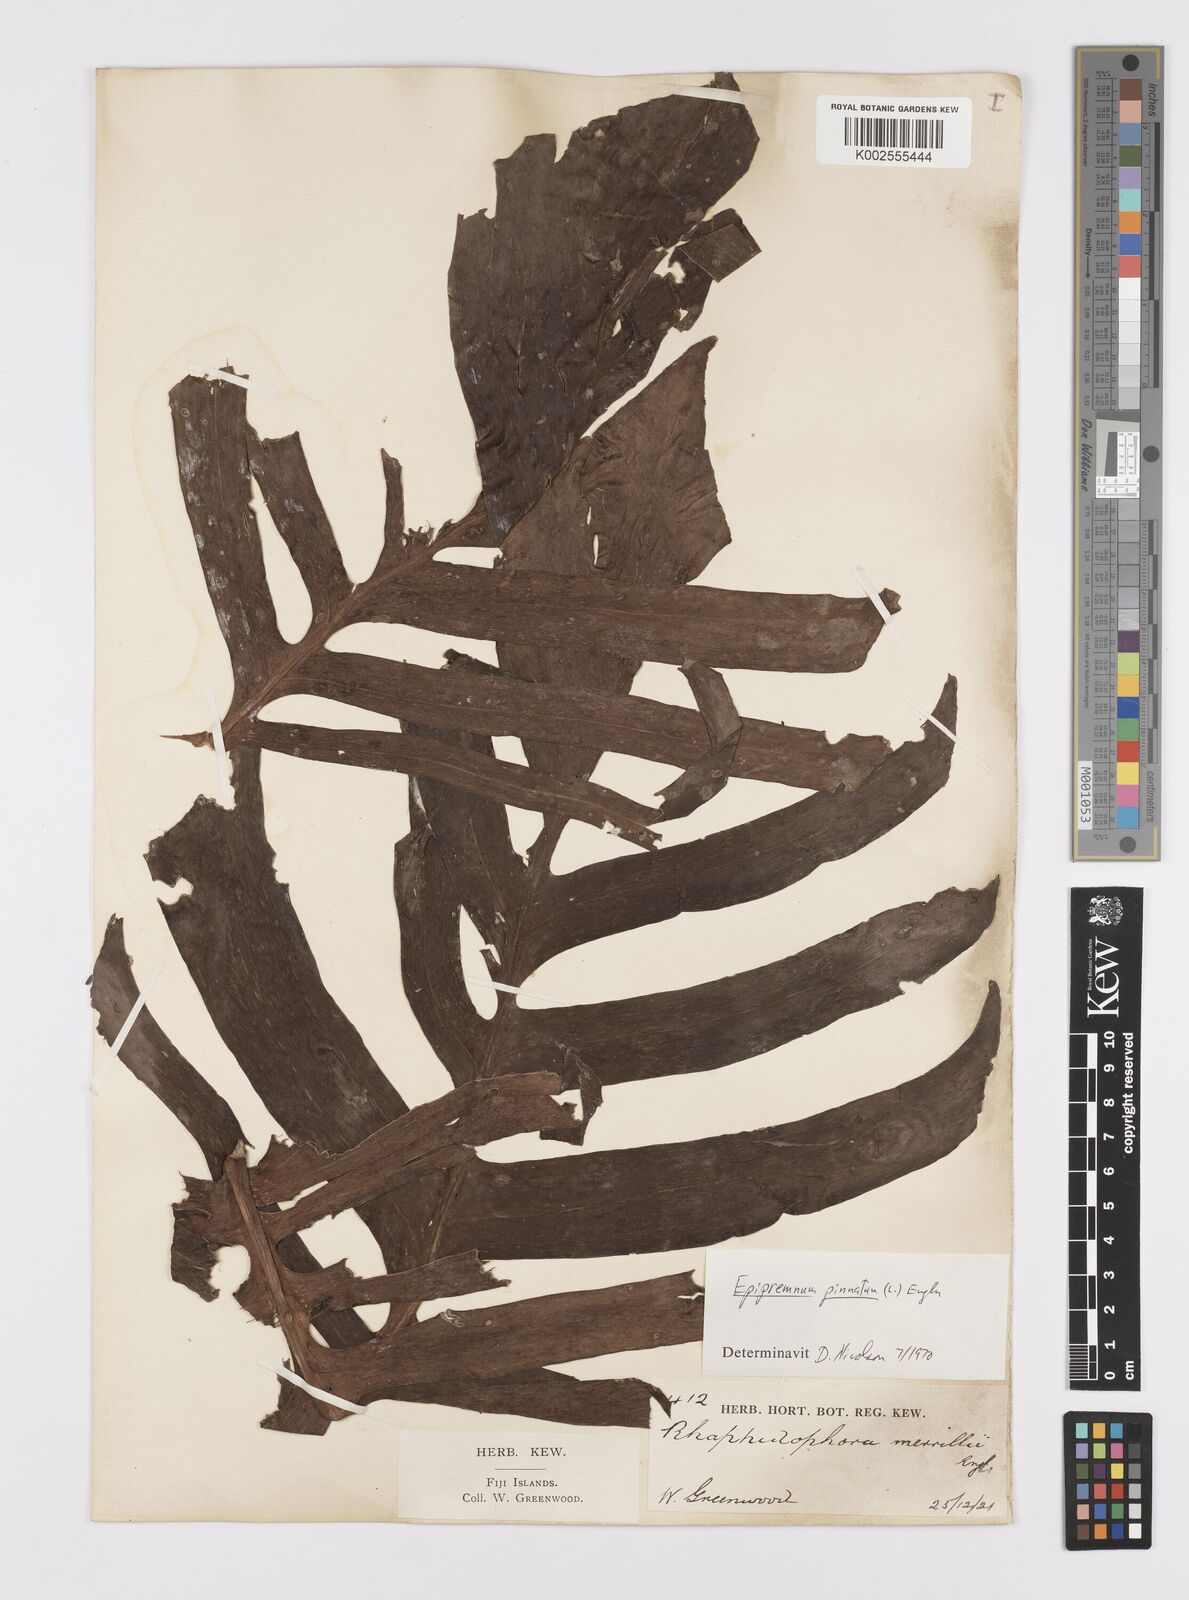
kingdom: Plantae
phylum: Tracheophyta
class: Liliopsida
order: Alismatales
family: Araceae
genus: Epipremnum
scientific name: Epipremnum pinnatum
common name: Centipede tongavine
